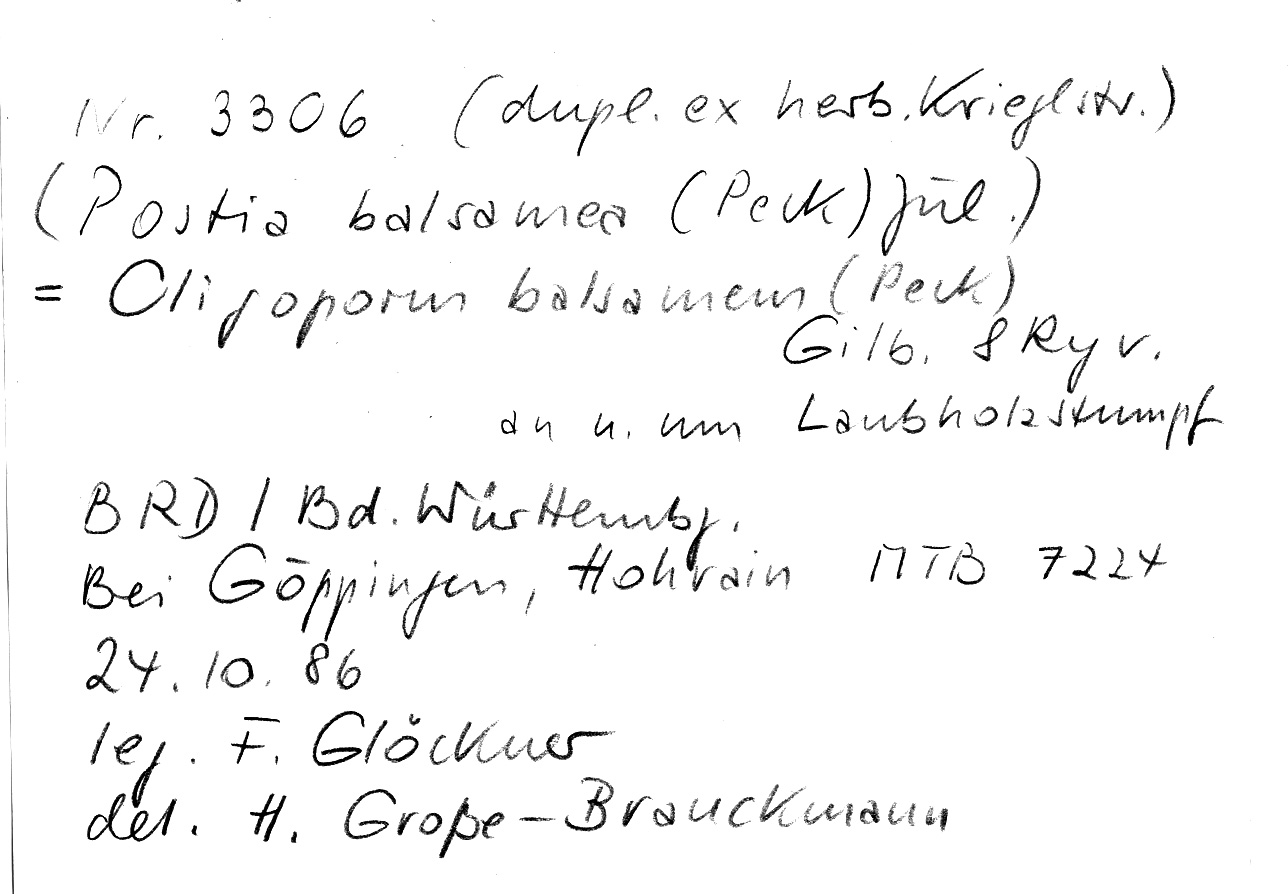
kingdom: Fungi
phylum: Basidiomycota
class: Agaricomycetes
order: Polyporales
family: Dacryobolaceae
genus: Postia
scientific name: Postia balsamea
